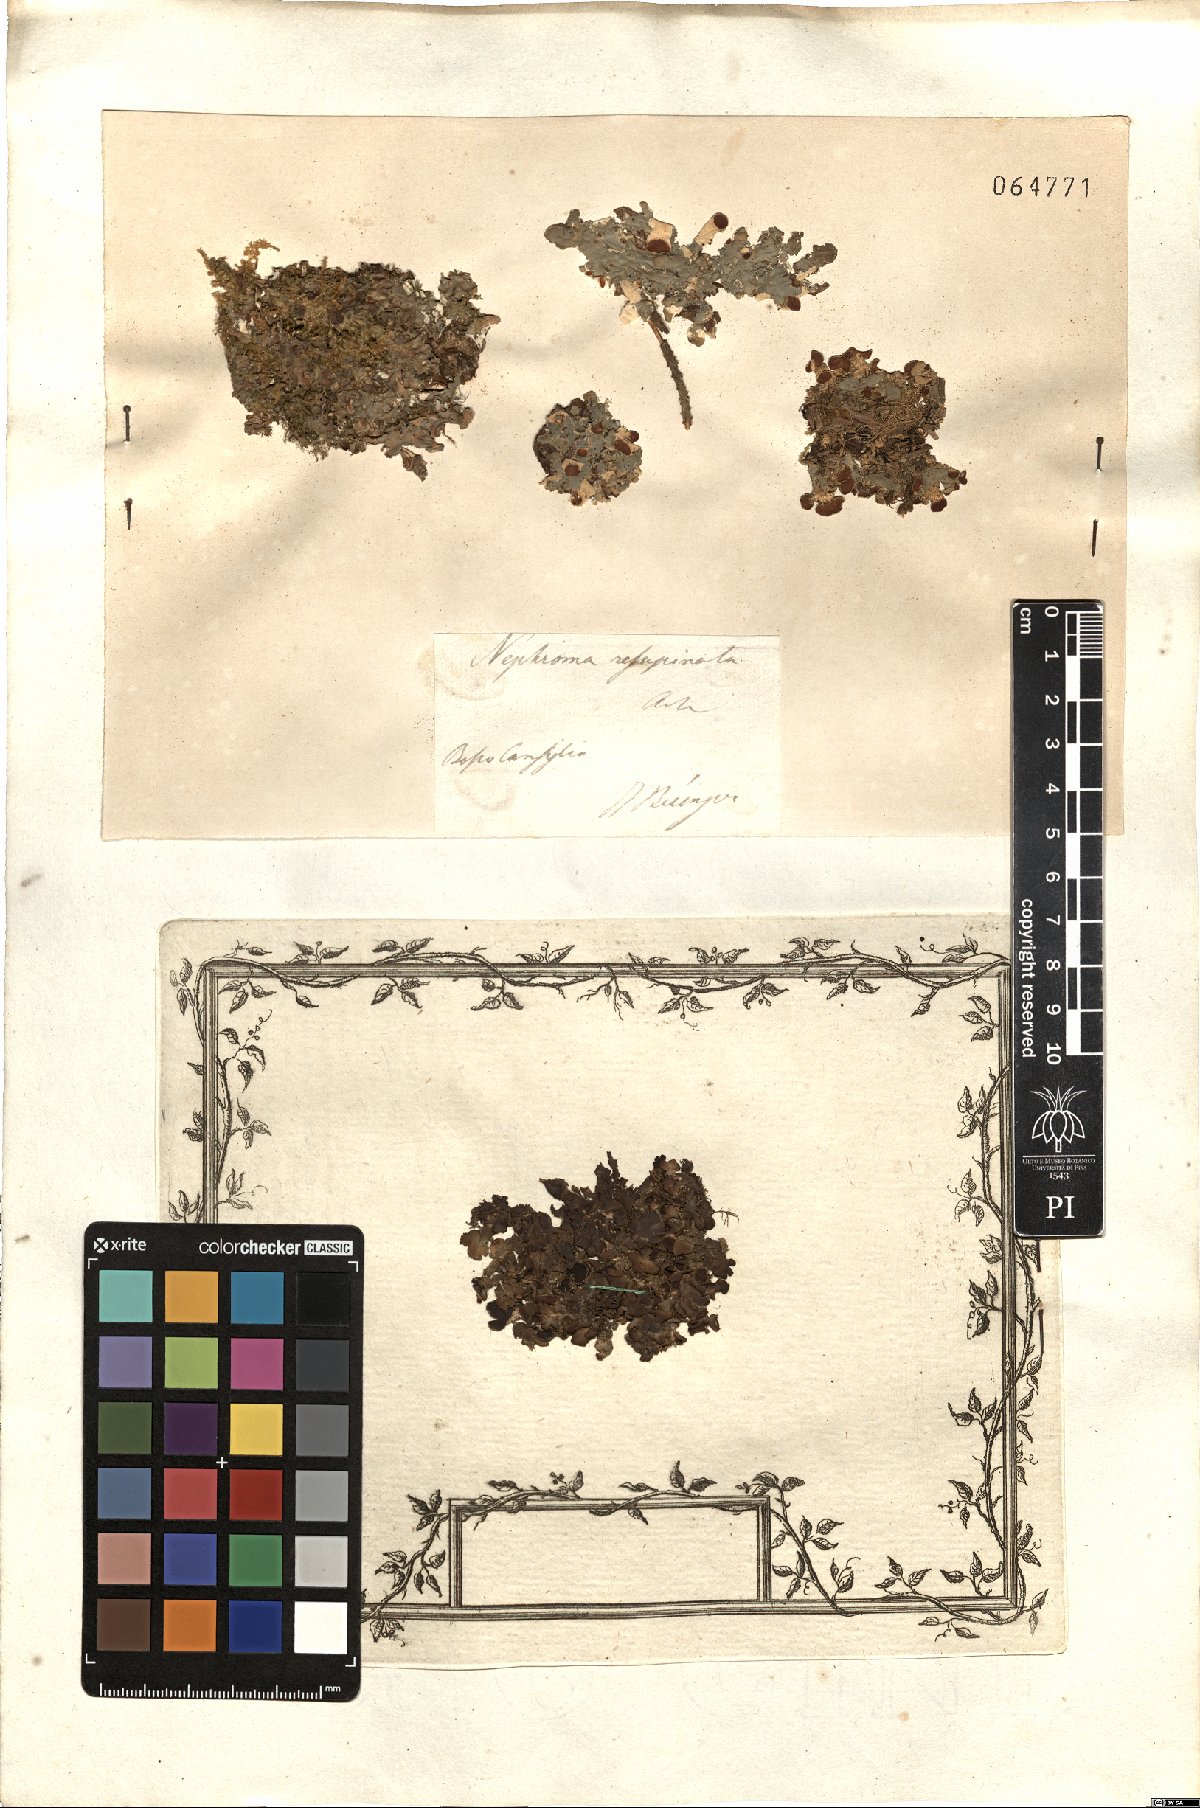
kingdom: Fungi
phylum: Ascomycota
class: Lecanoromycetes
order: Peltigerales
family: Nephromataceae
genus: Nephroma
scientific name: Nephroma resupinatum
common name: Pimpled kidney lichen
